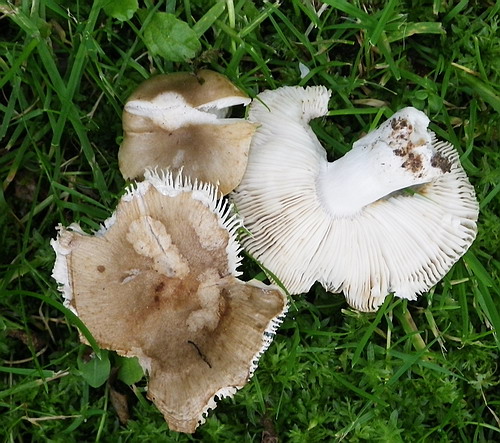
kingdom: Fungi
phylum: Basidiomycota
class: Agaricomycetes
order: Russulales
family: Russulaceae
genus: Russula
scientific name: Russula recondita
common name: mild kam-skørhat
